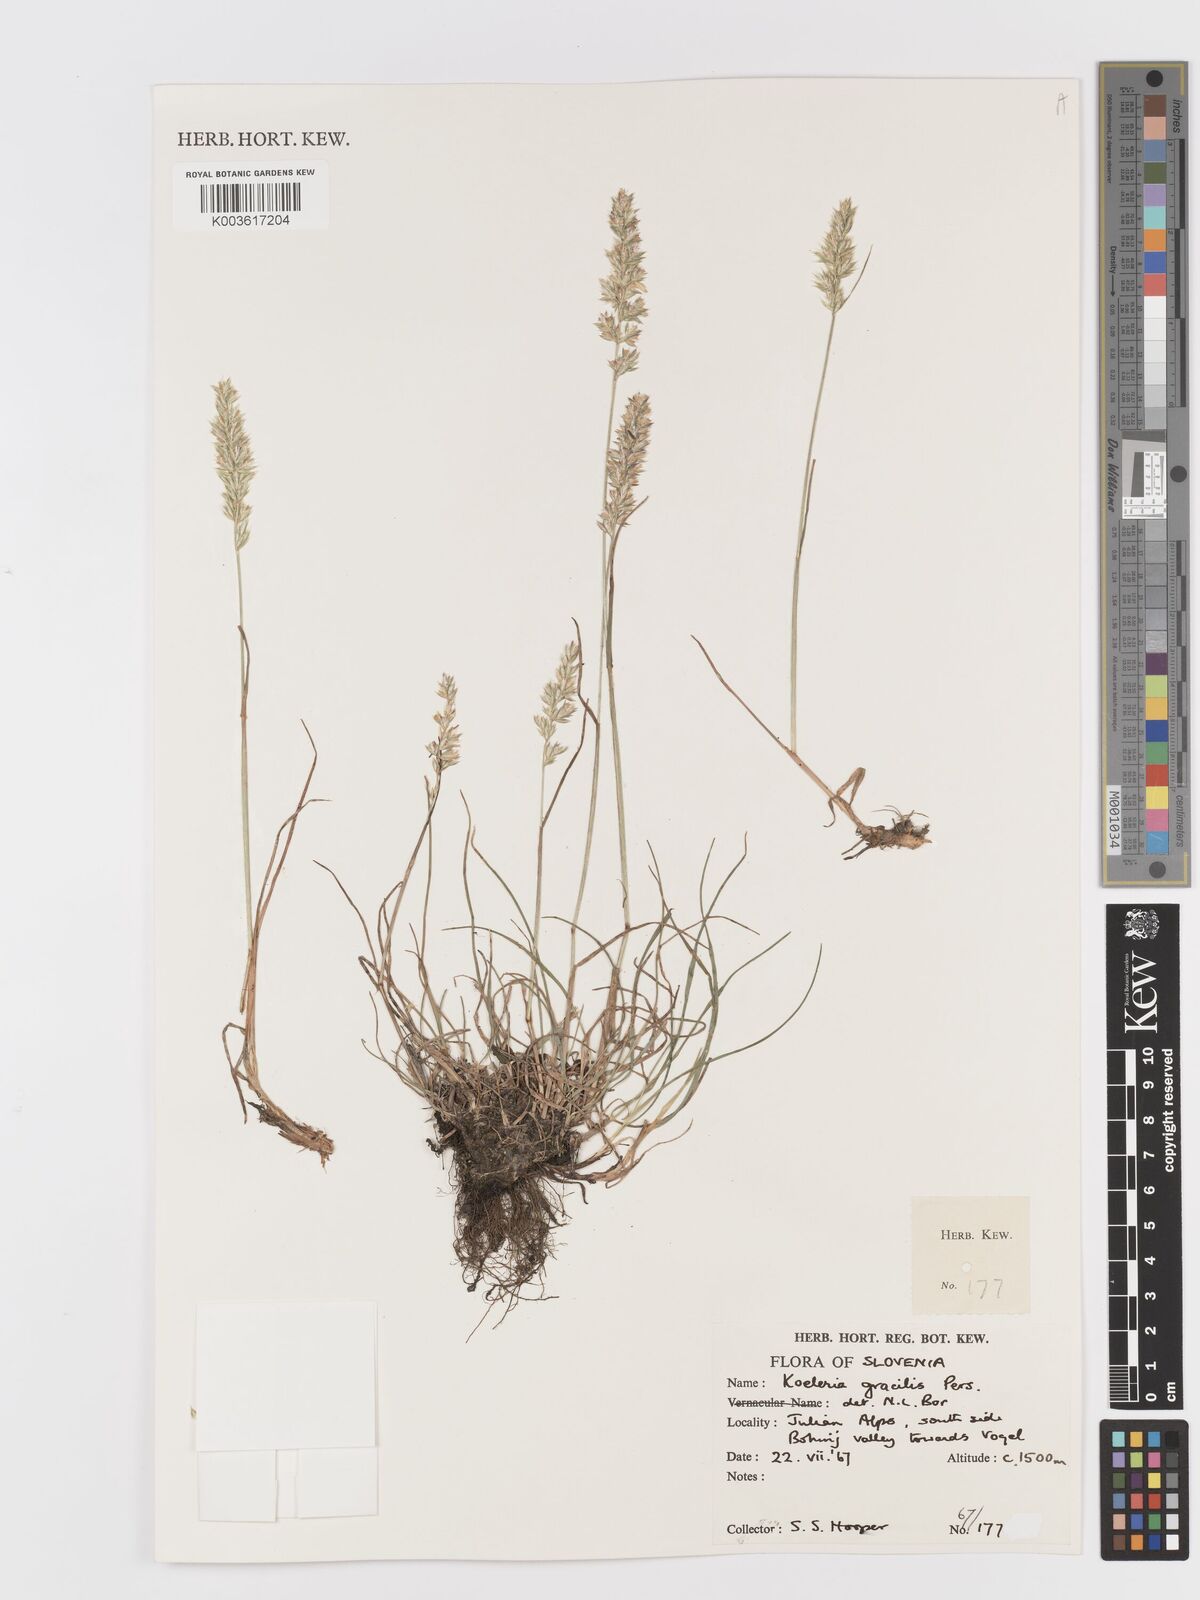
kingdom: Plantae
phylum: Tracheophyta
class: Liliopsida
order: Poales
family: Poaceae
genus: Koeleria
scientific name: Koeleria macrantha
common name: Crested hair-grass
